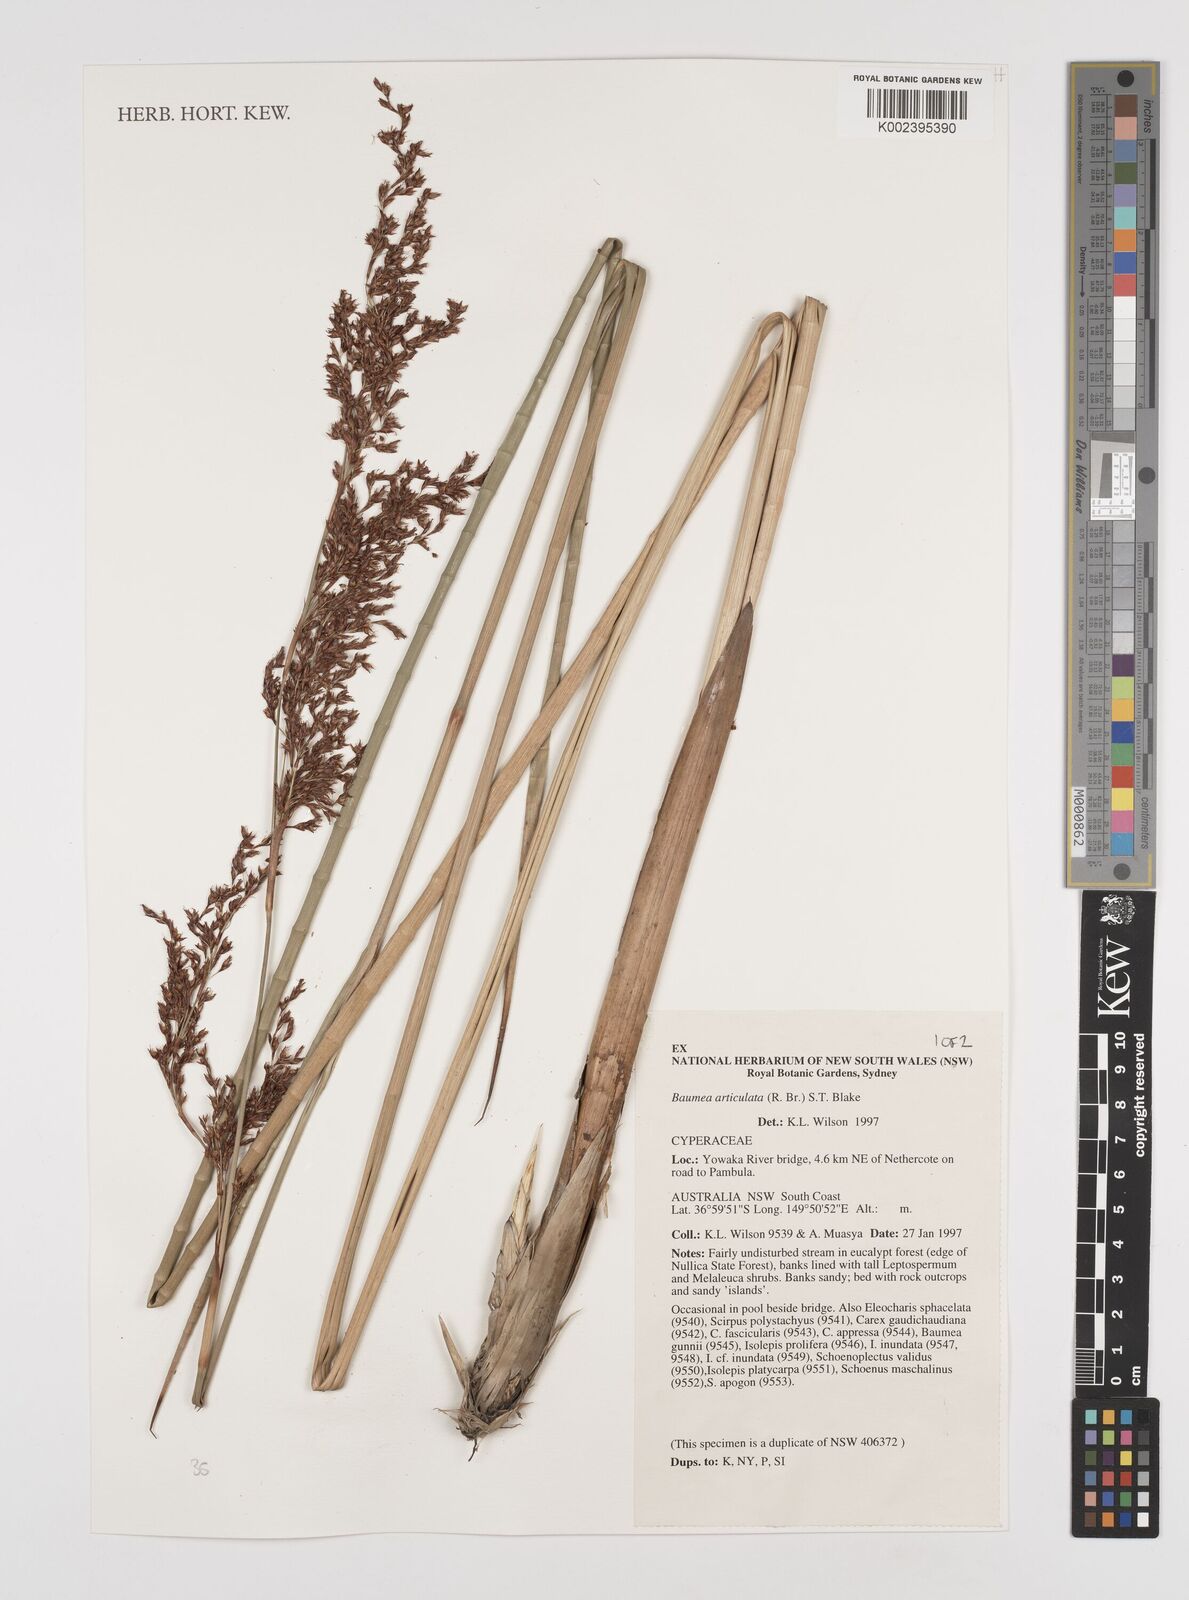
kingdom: Plantae
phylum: Tracheophyta
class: Liliopsida
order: Poales
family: Cyperaceae
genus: Machaerina
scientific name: Machaerina articulata
